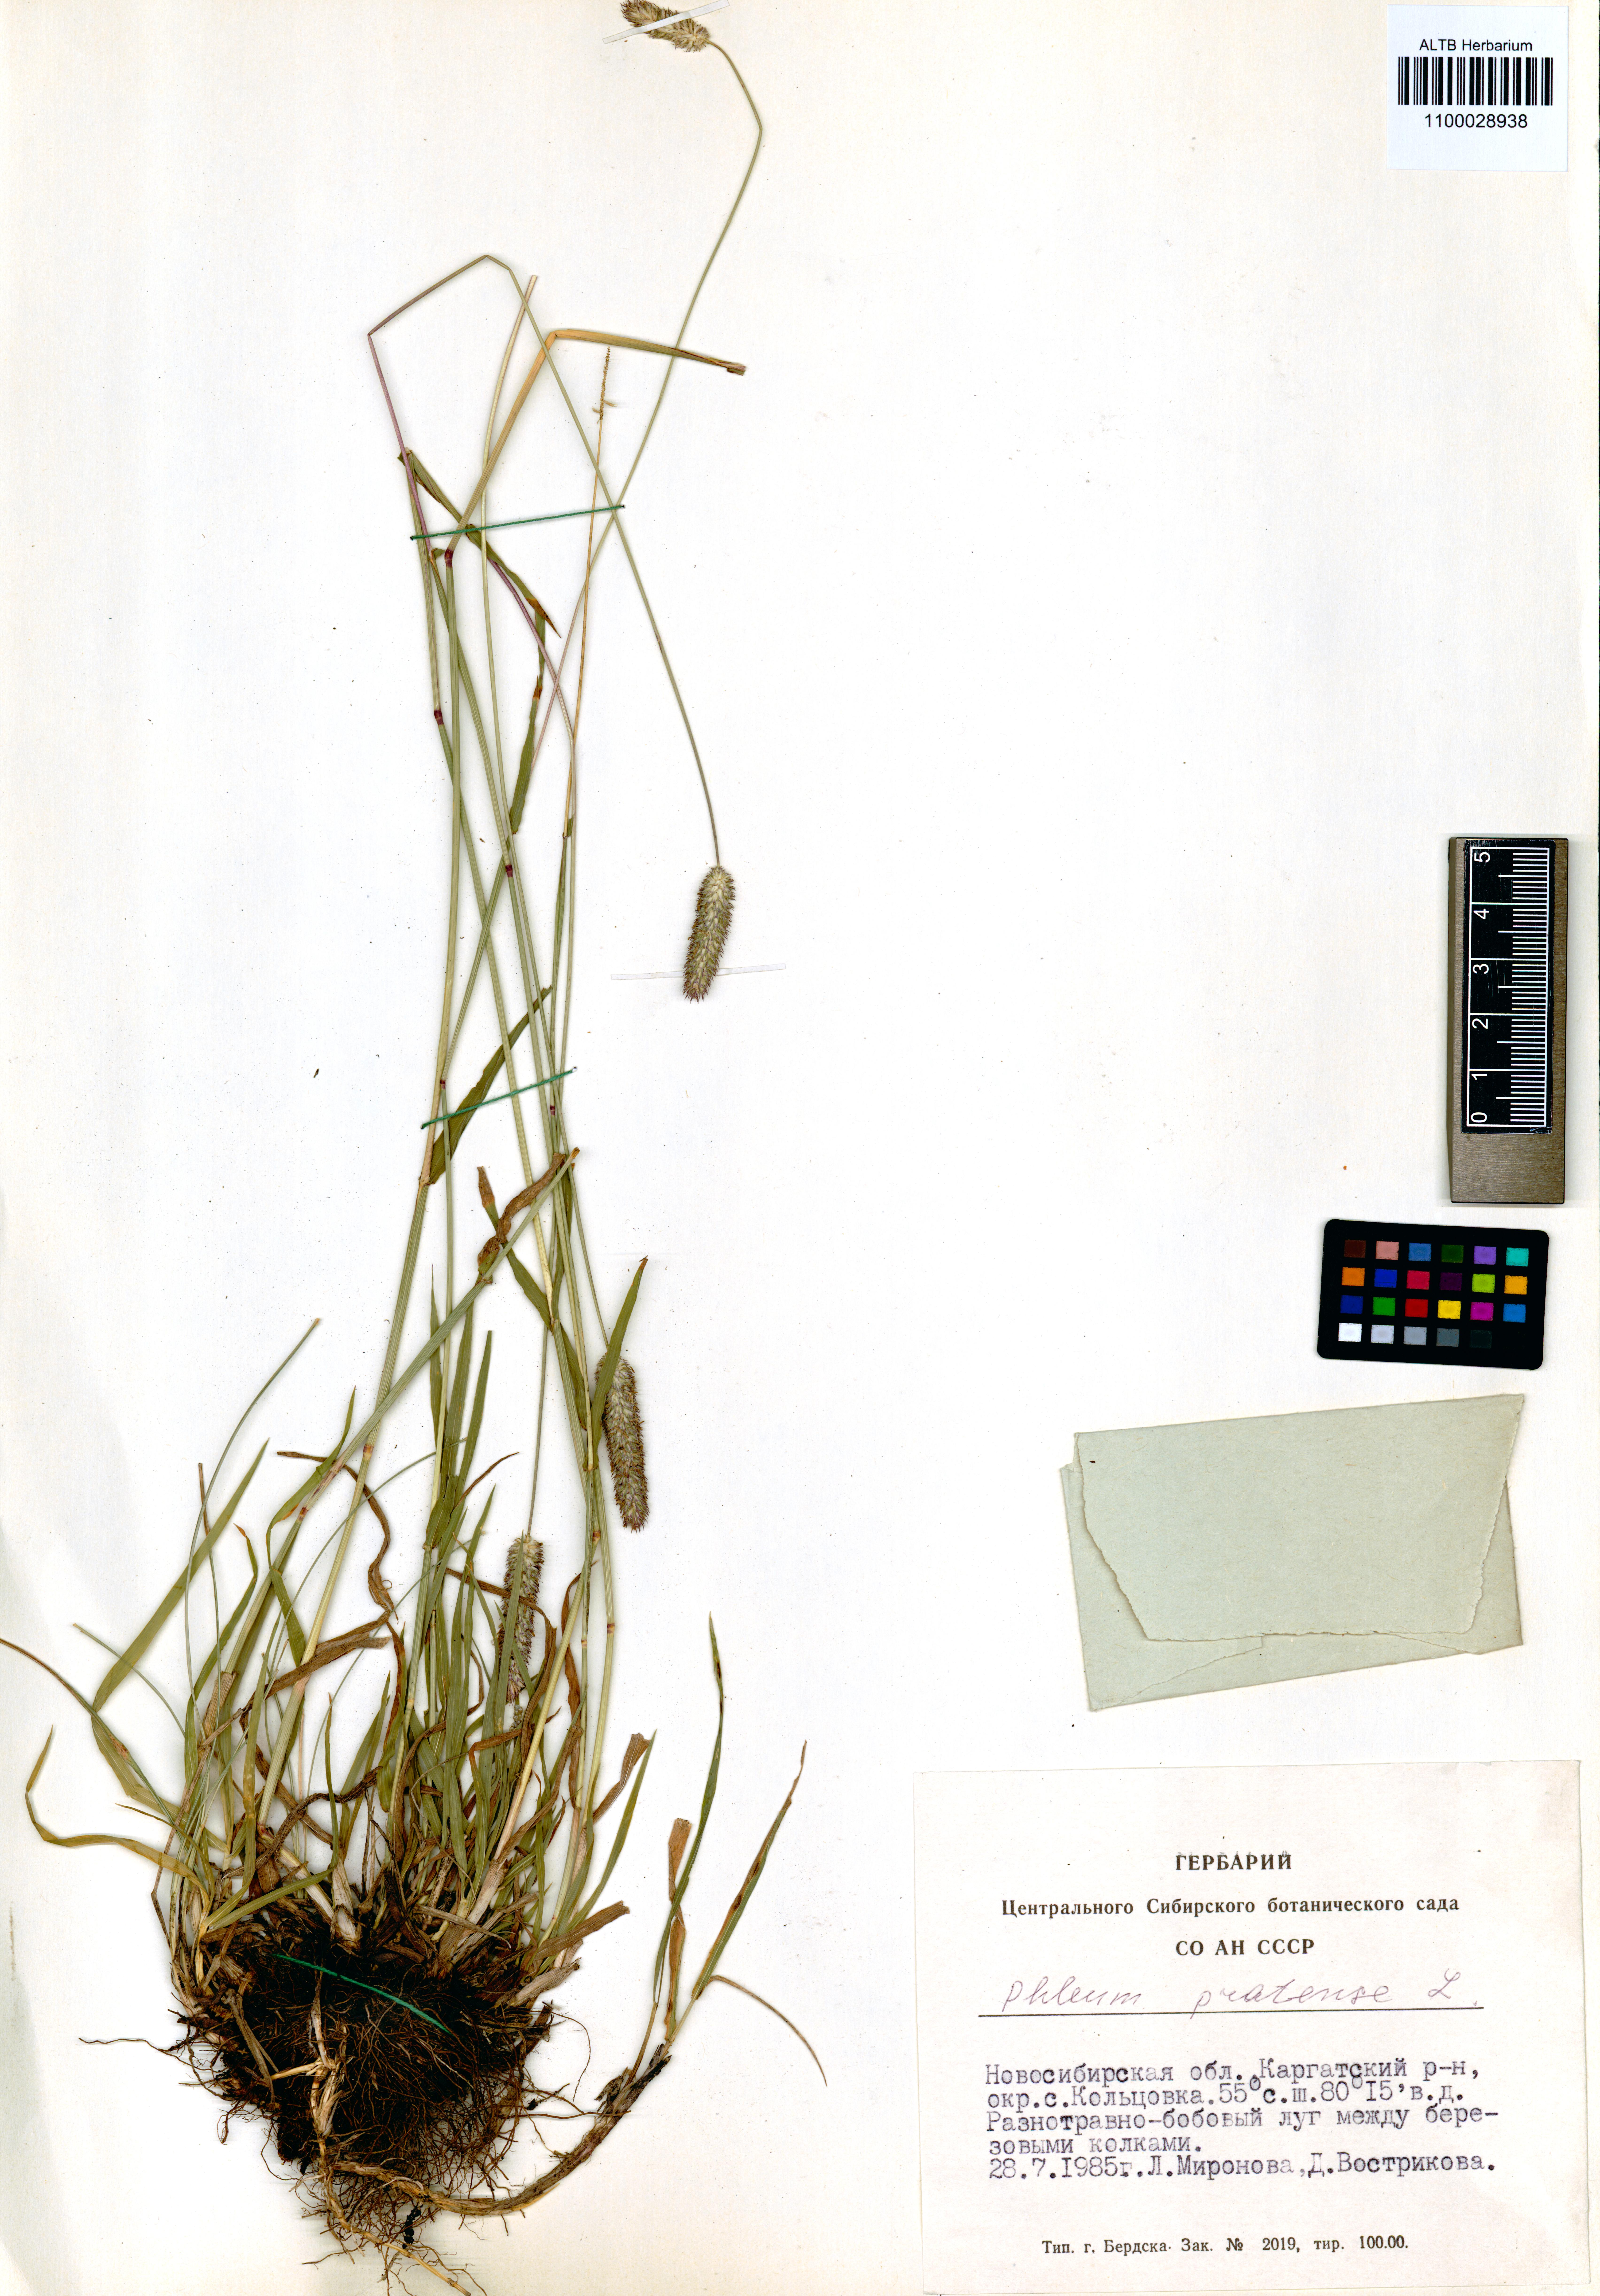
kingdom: Plantae
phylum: Tracheophyta
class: Liliopsida
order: Poales
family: Poaceae
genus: Phleum
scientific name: Phleum pratense
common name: Timothy grass
